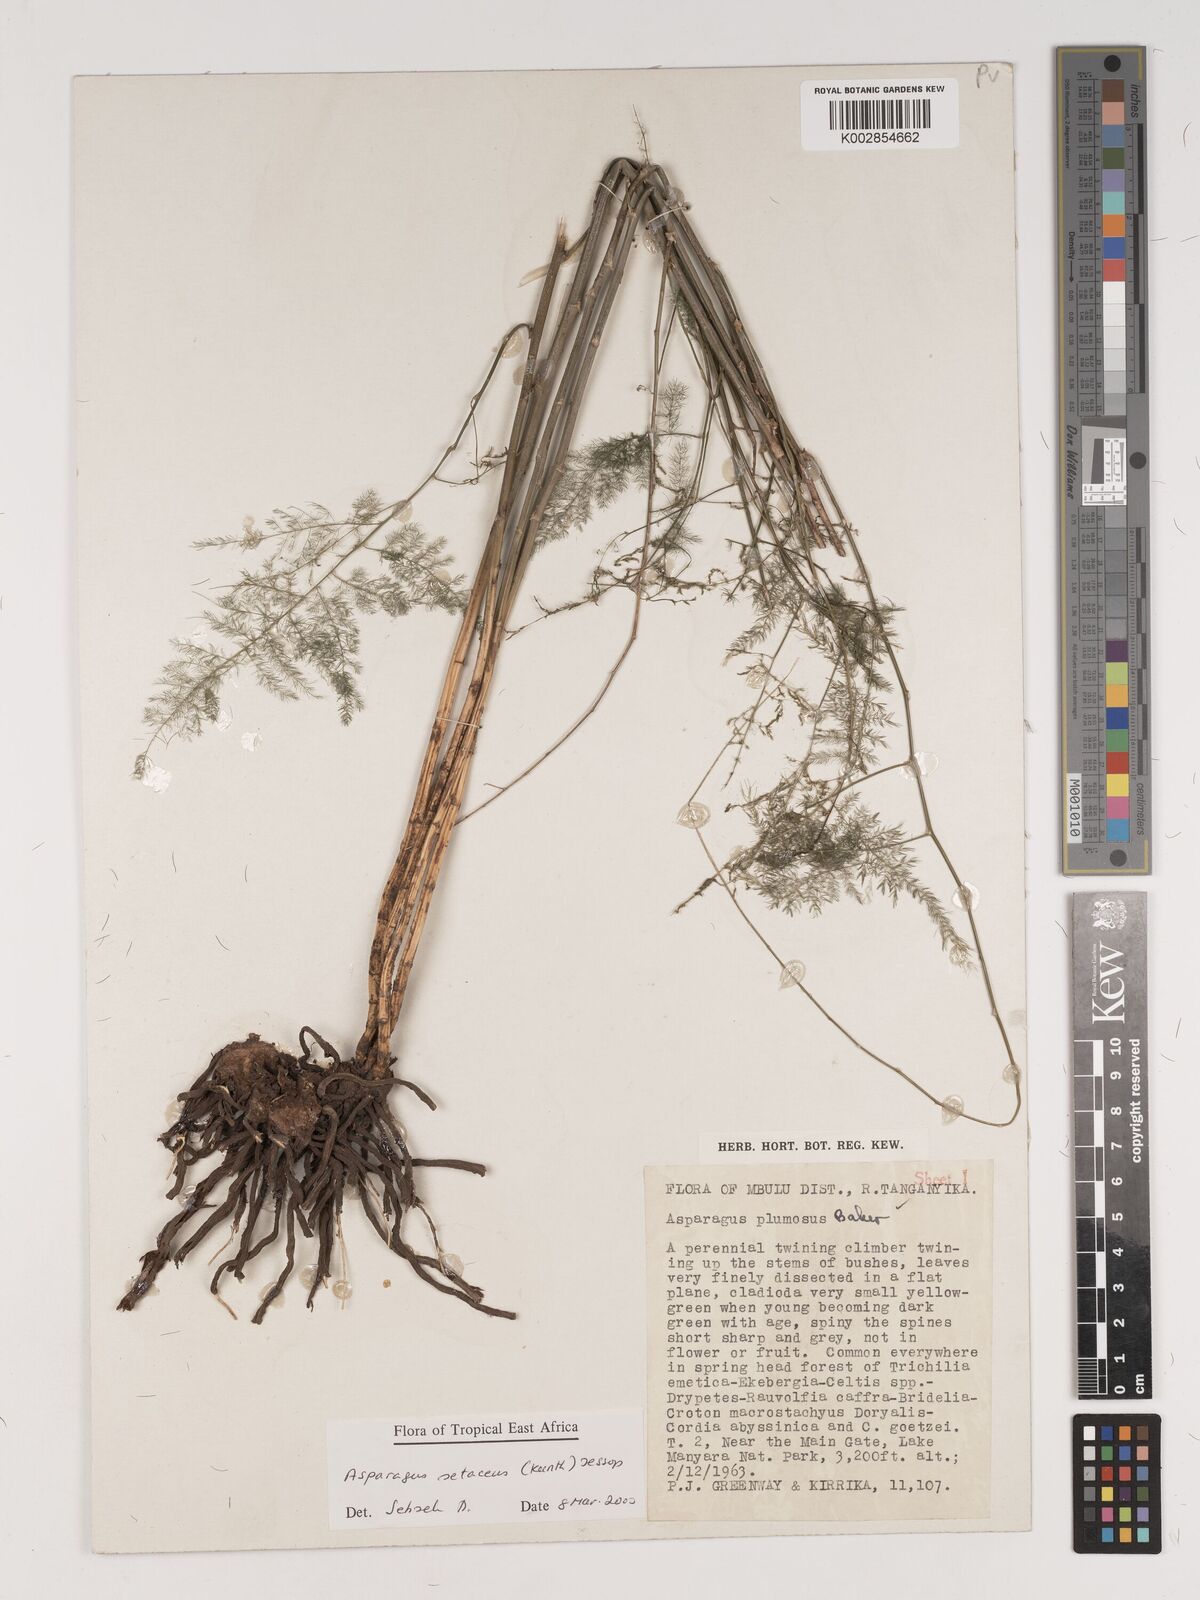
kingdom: Plantae
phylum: Tracheophyta
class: Liliopsida
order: Asparagales
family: Asparagaceae
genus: Asparagus
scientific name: Asparagus setaceus
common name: Common asparagus fern
